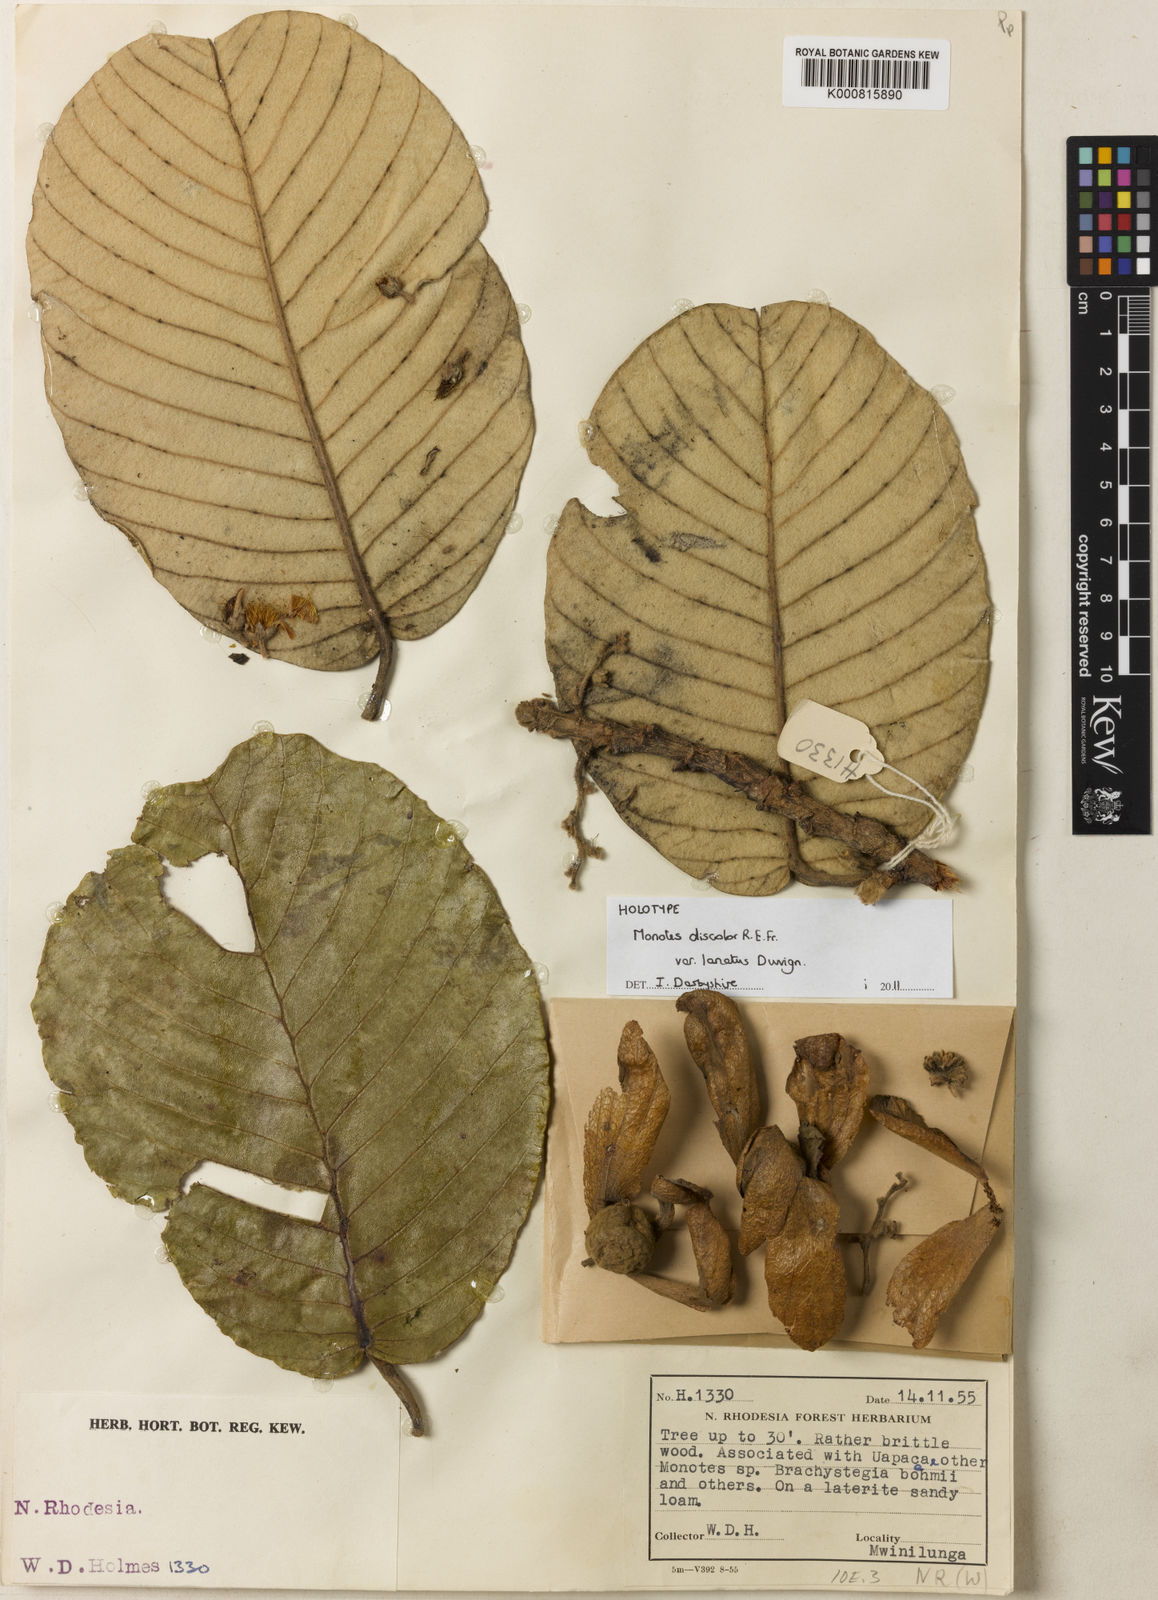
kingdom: Plantae
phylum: Tracheophyta
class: Magnoliopsida
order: Malvales
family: Dipterocarpaceae
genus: Monotes
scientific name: Monotes hypoleucus
